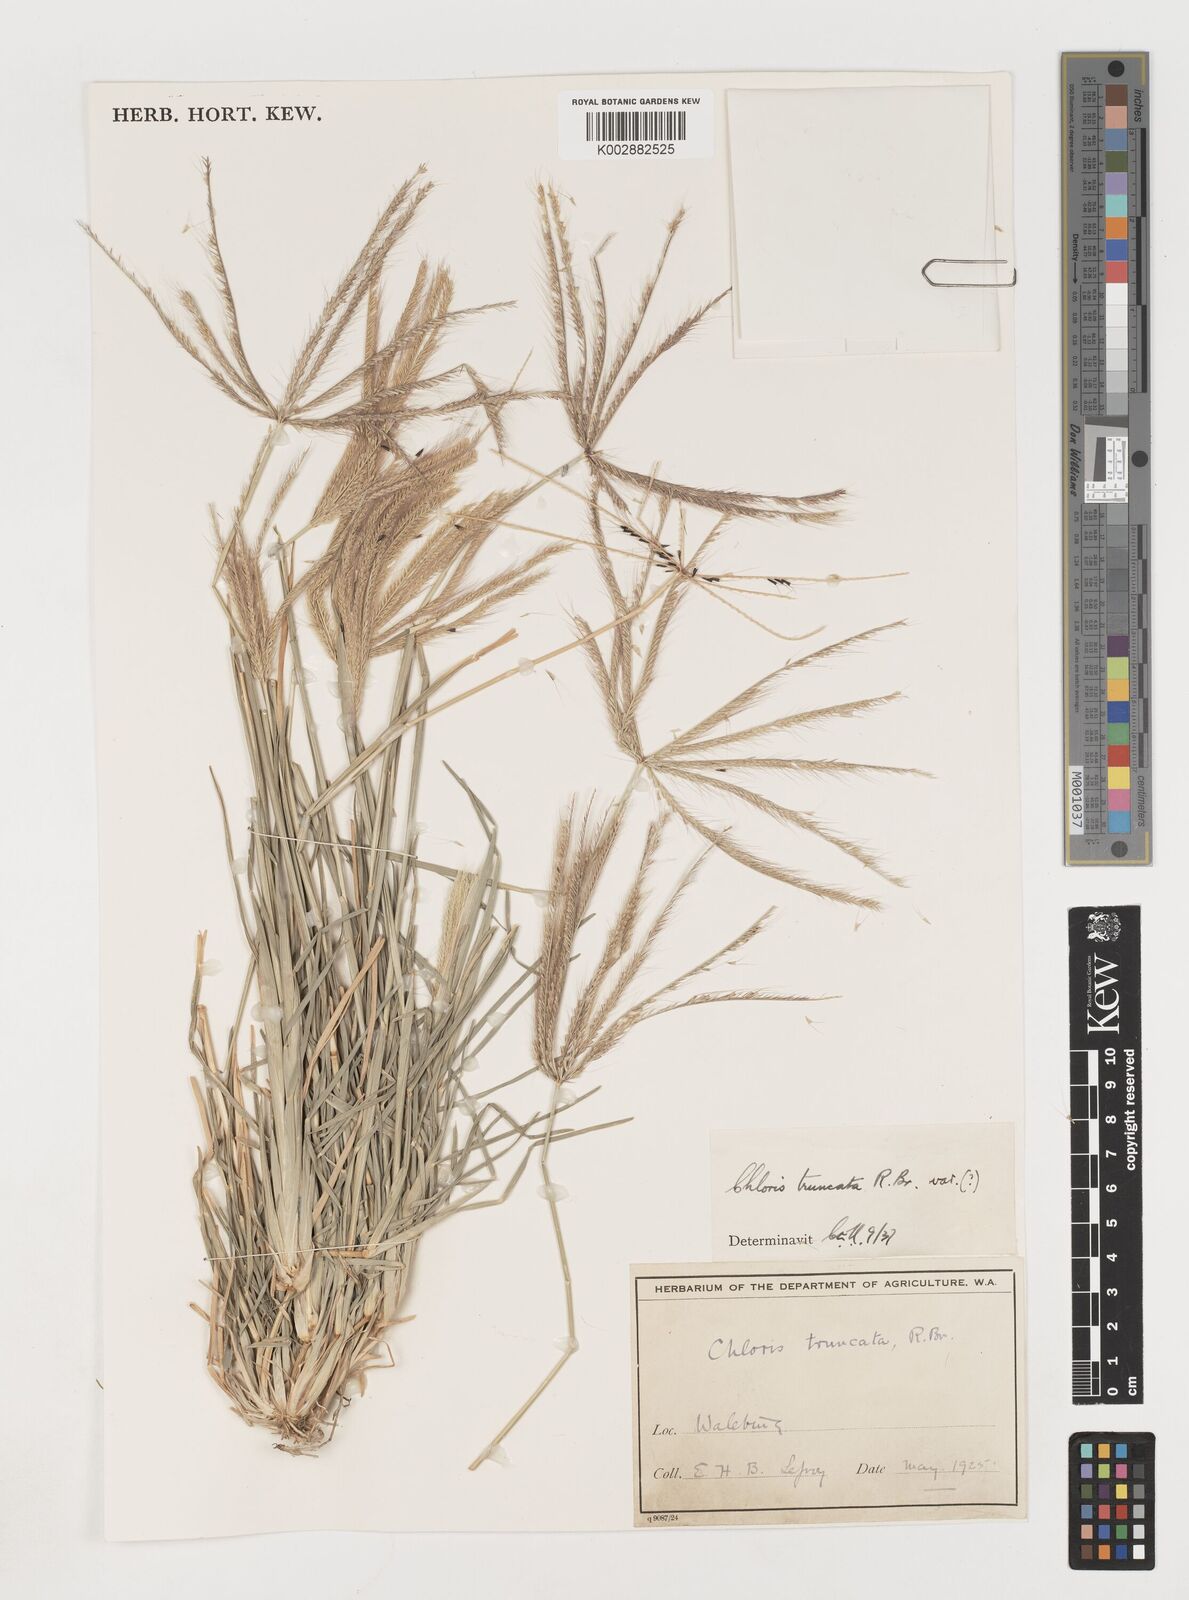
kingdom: Plantae
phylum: Tracheophyta
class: Liliopsida
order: Poales
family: Poaceae
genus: Chloris
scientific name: Chloris truncata
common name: Windmill-grass
